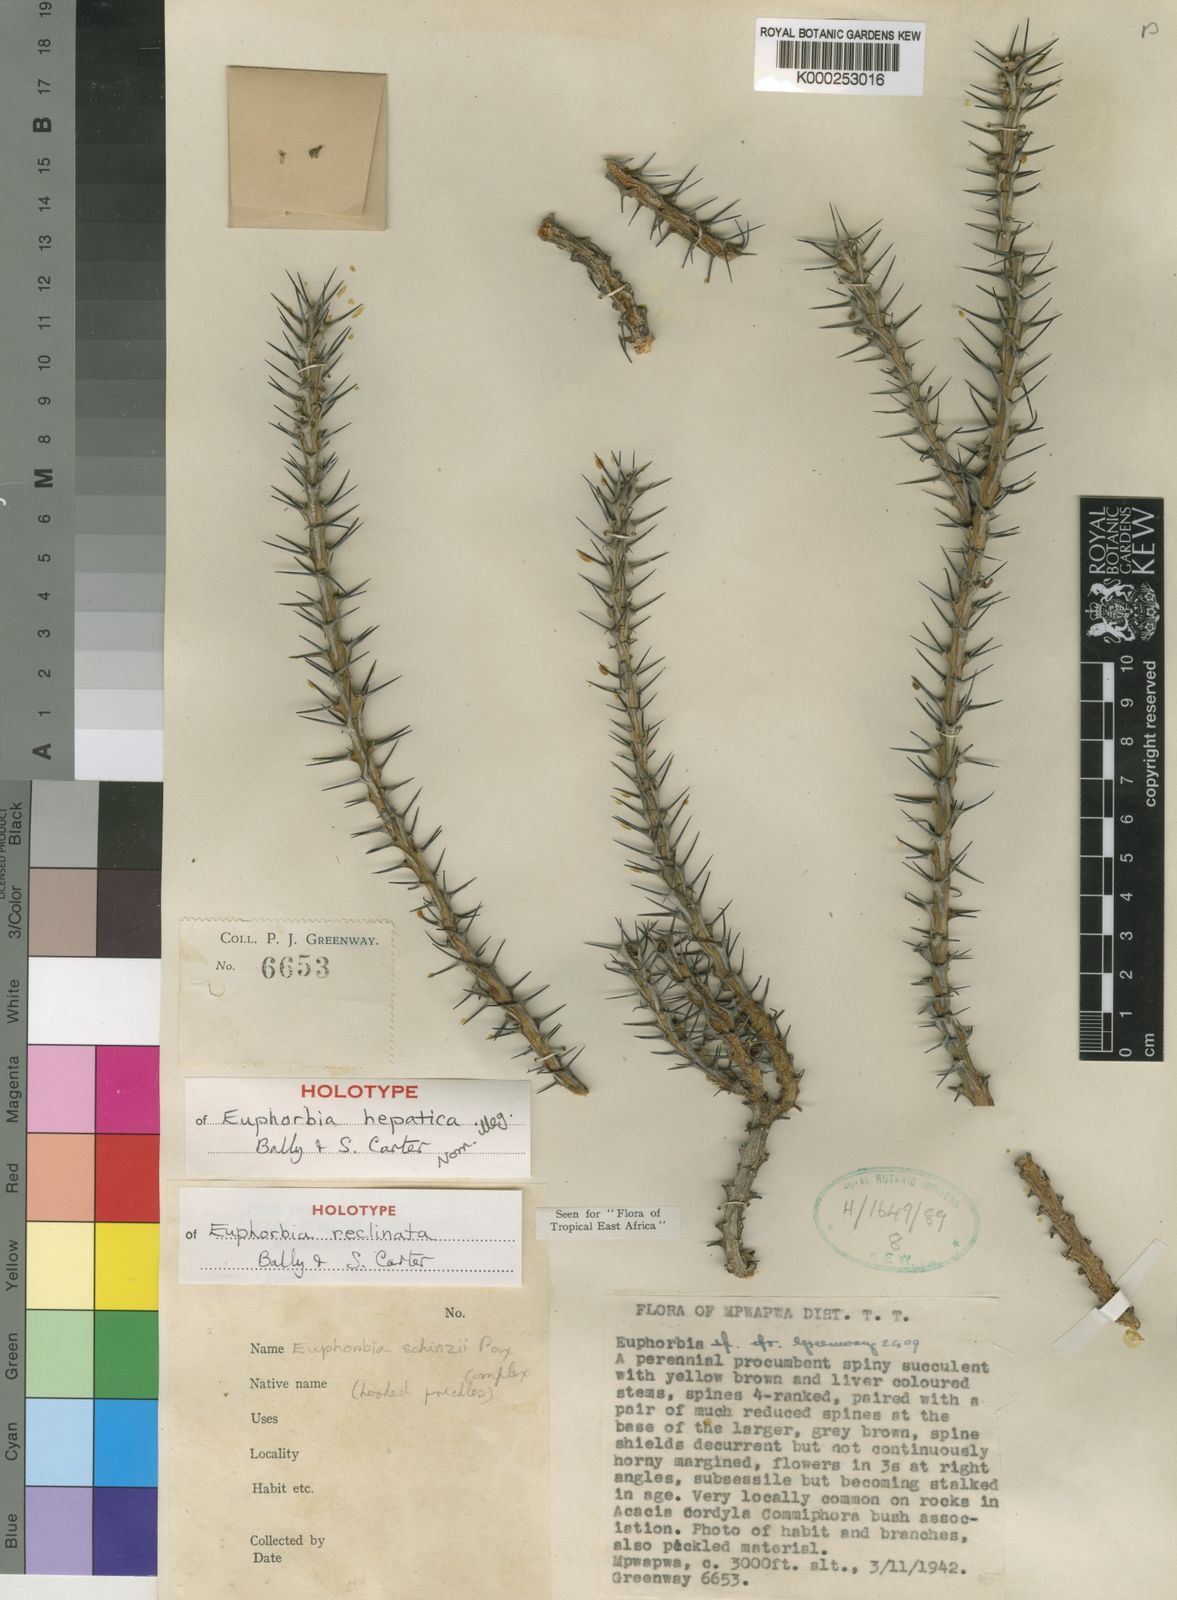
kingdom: Plantae
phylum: Tracheophyta
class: Magnoliopsida
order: Malpighiales
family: Euphorbiaceae
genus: Euphorbia
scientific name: Euphorbia reclinata
